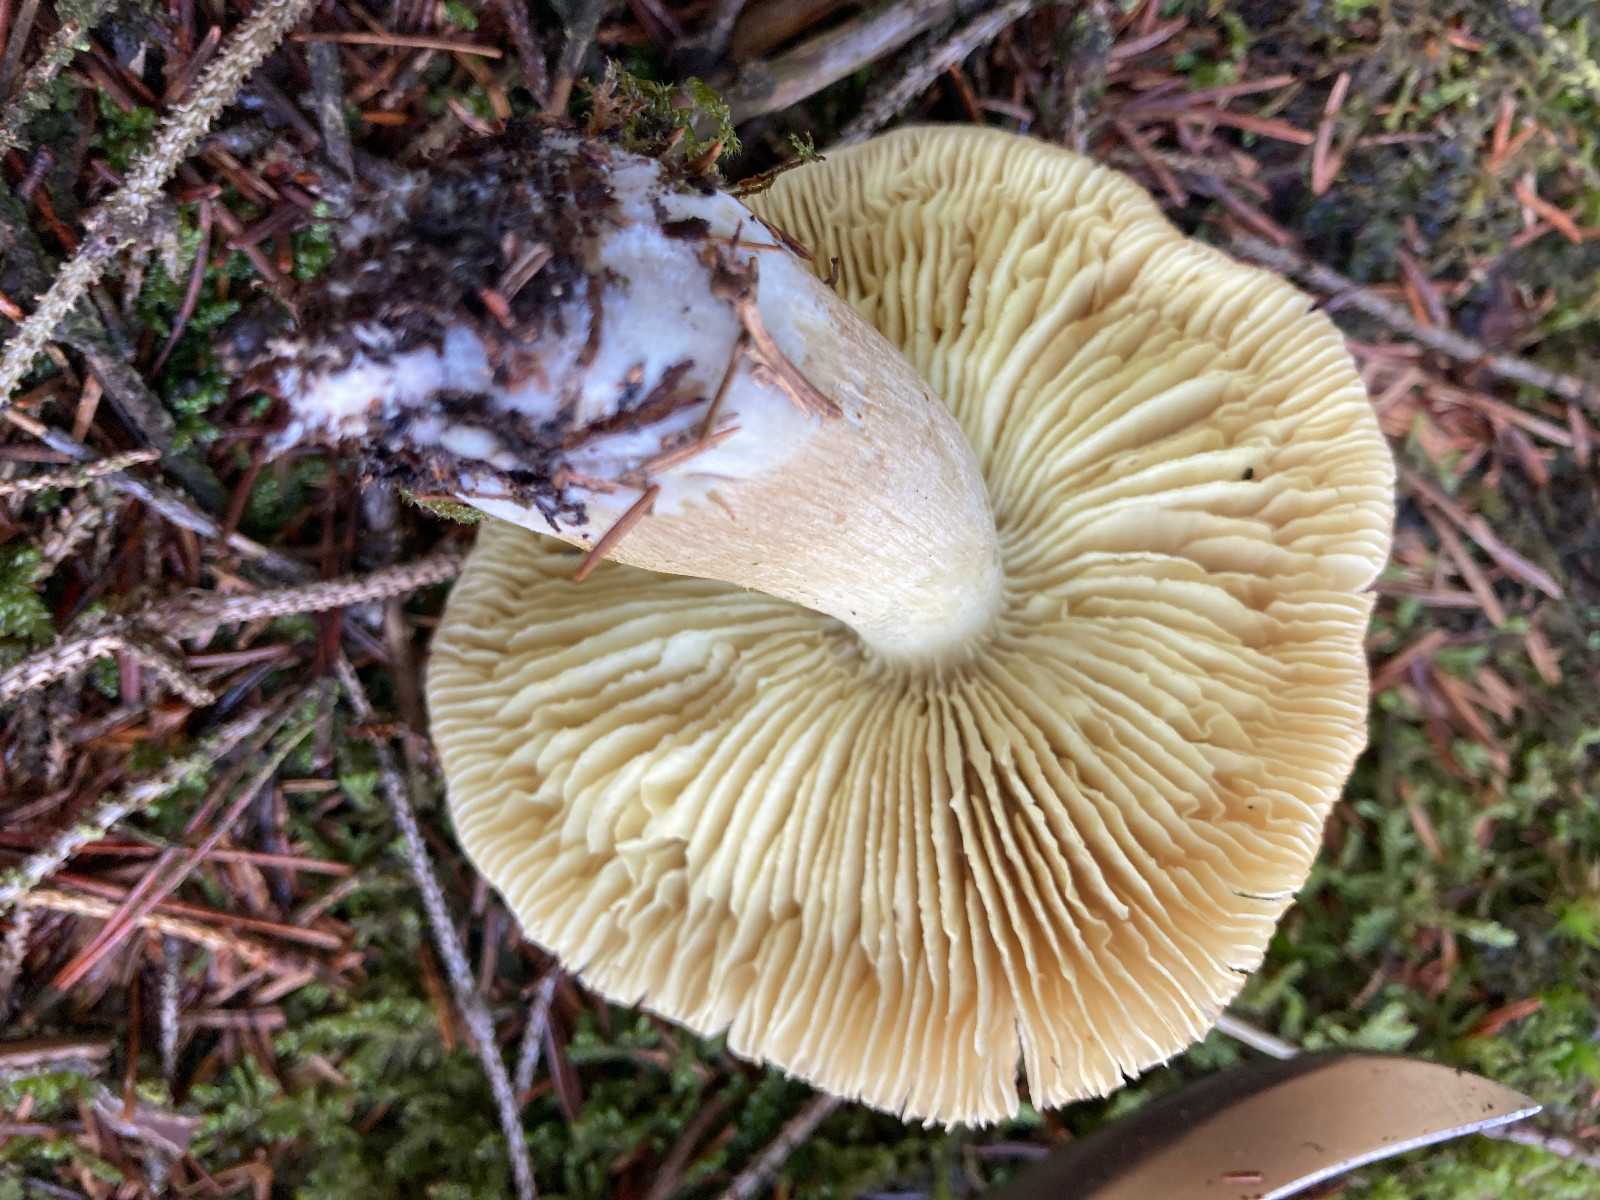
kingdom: Fungi
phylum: Basidiomycota
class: Agaricomycetes
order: Agaricales
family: Tricholomataceae
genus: Tricholoma
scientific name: Tricholoma aestuans
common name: kegle-ridderhat
